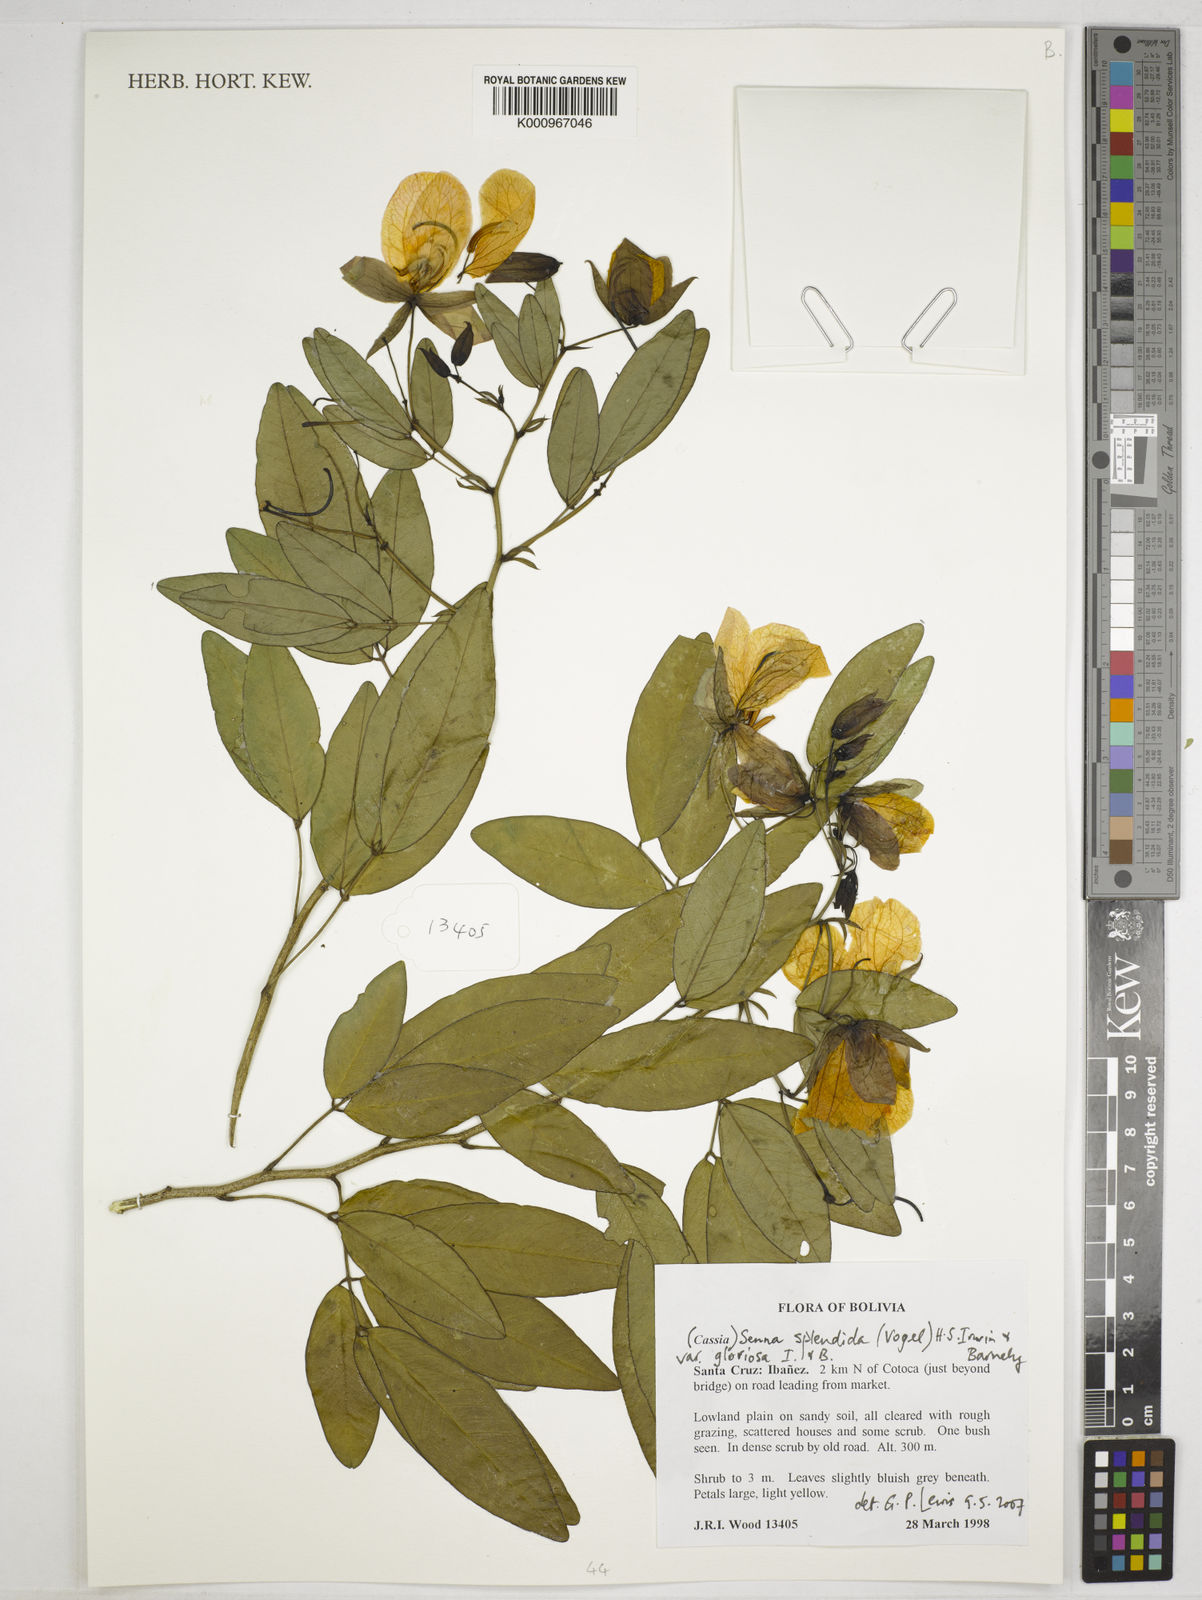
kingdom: Plantae
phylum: Tracheophyta
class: Magnoliopsida
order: Fabales
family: Fabaceae
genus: Senna
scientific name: Senna splendida
